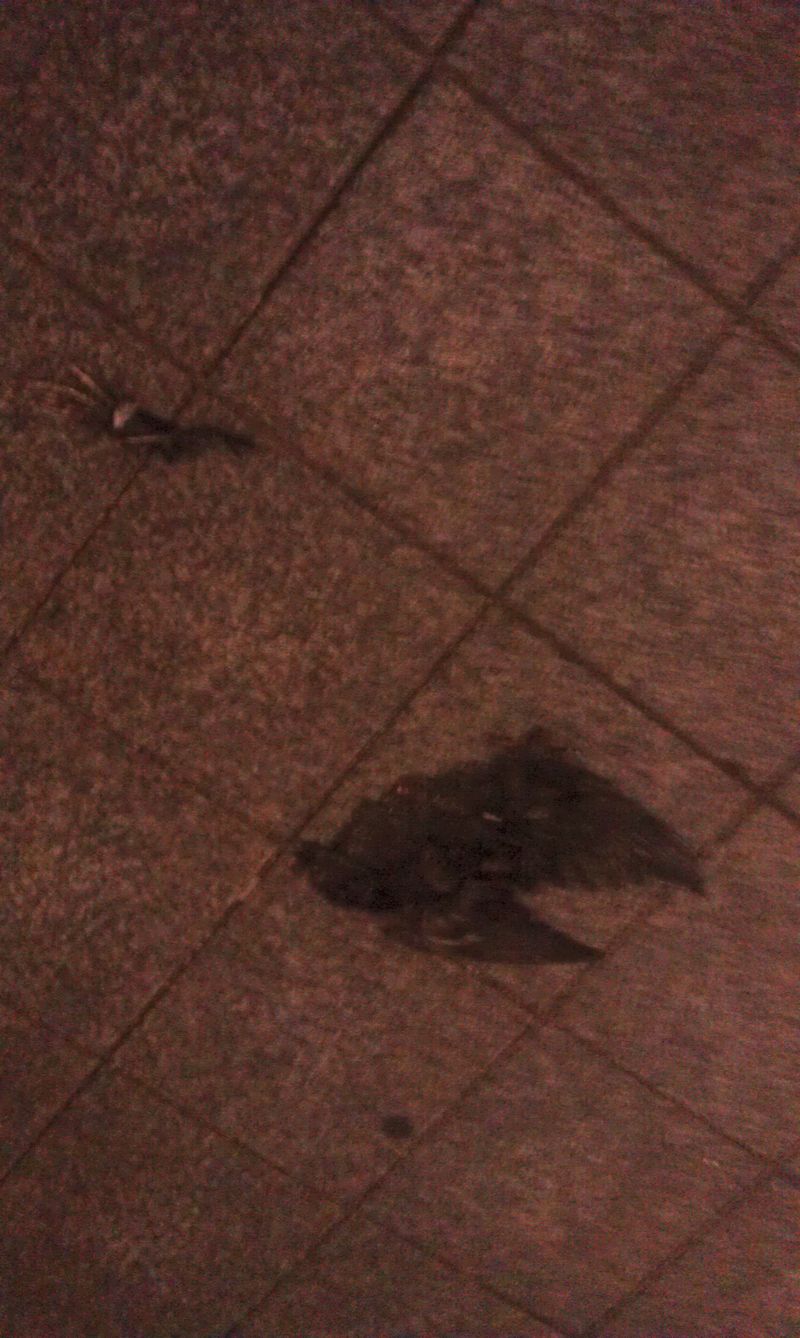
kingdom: Animalia
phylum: Chordata
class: Aves
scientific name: Aves
